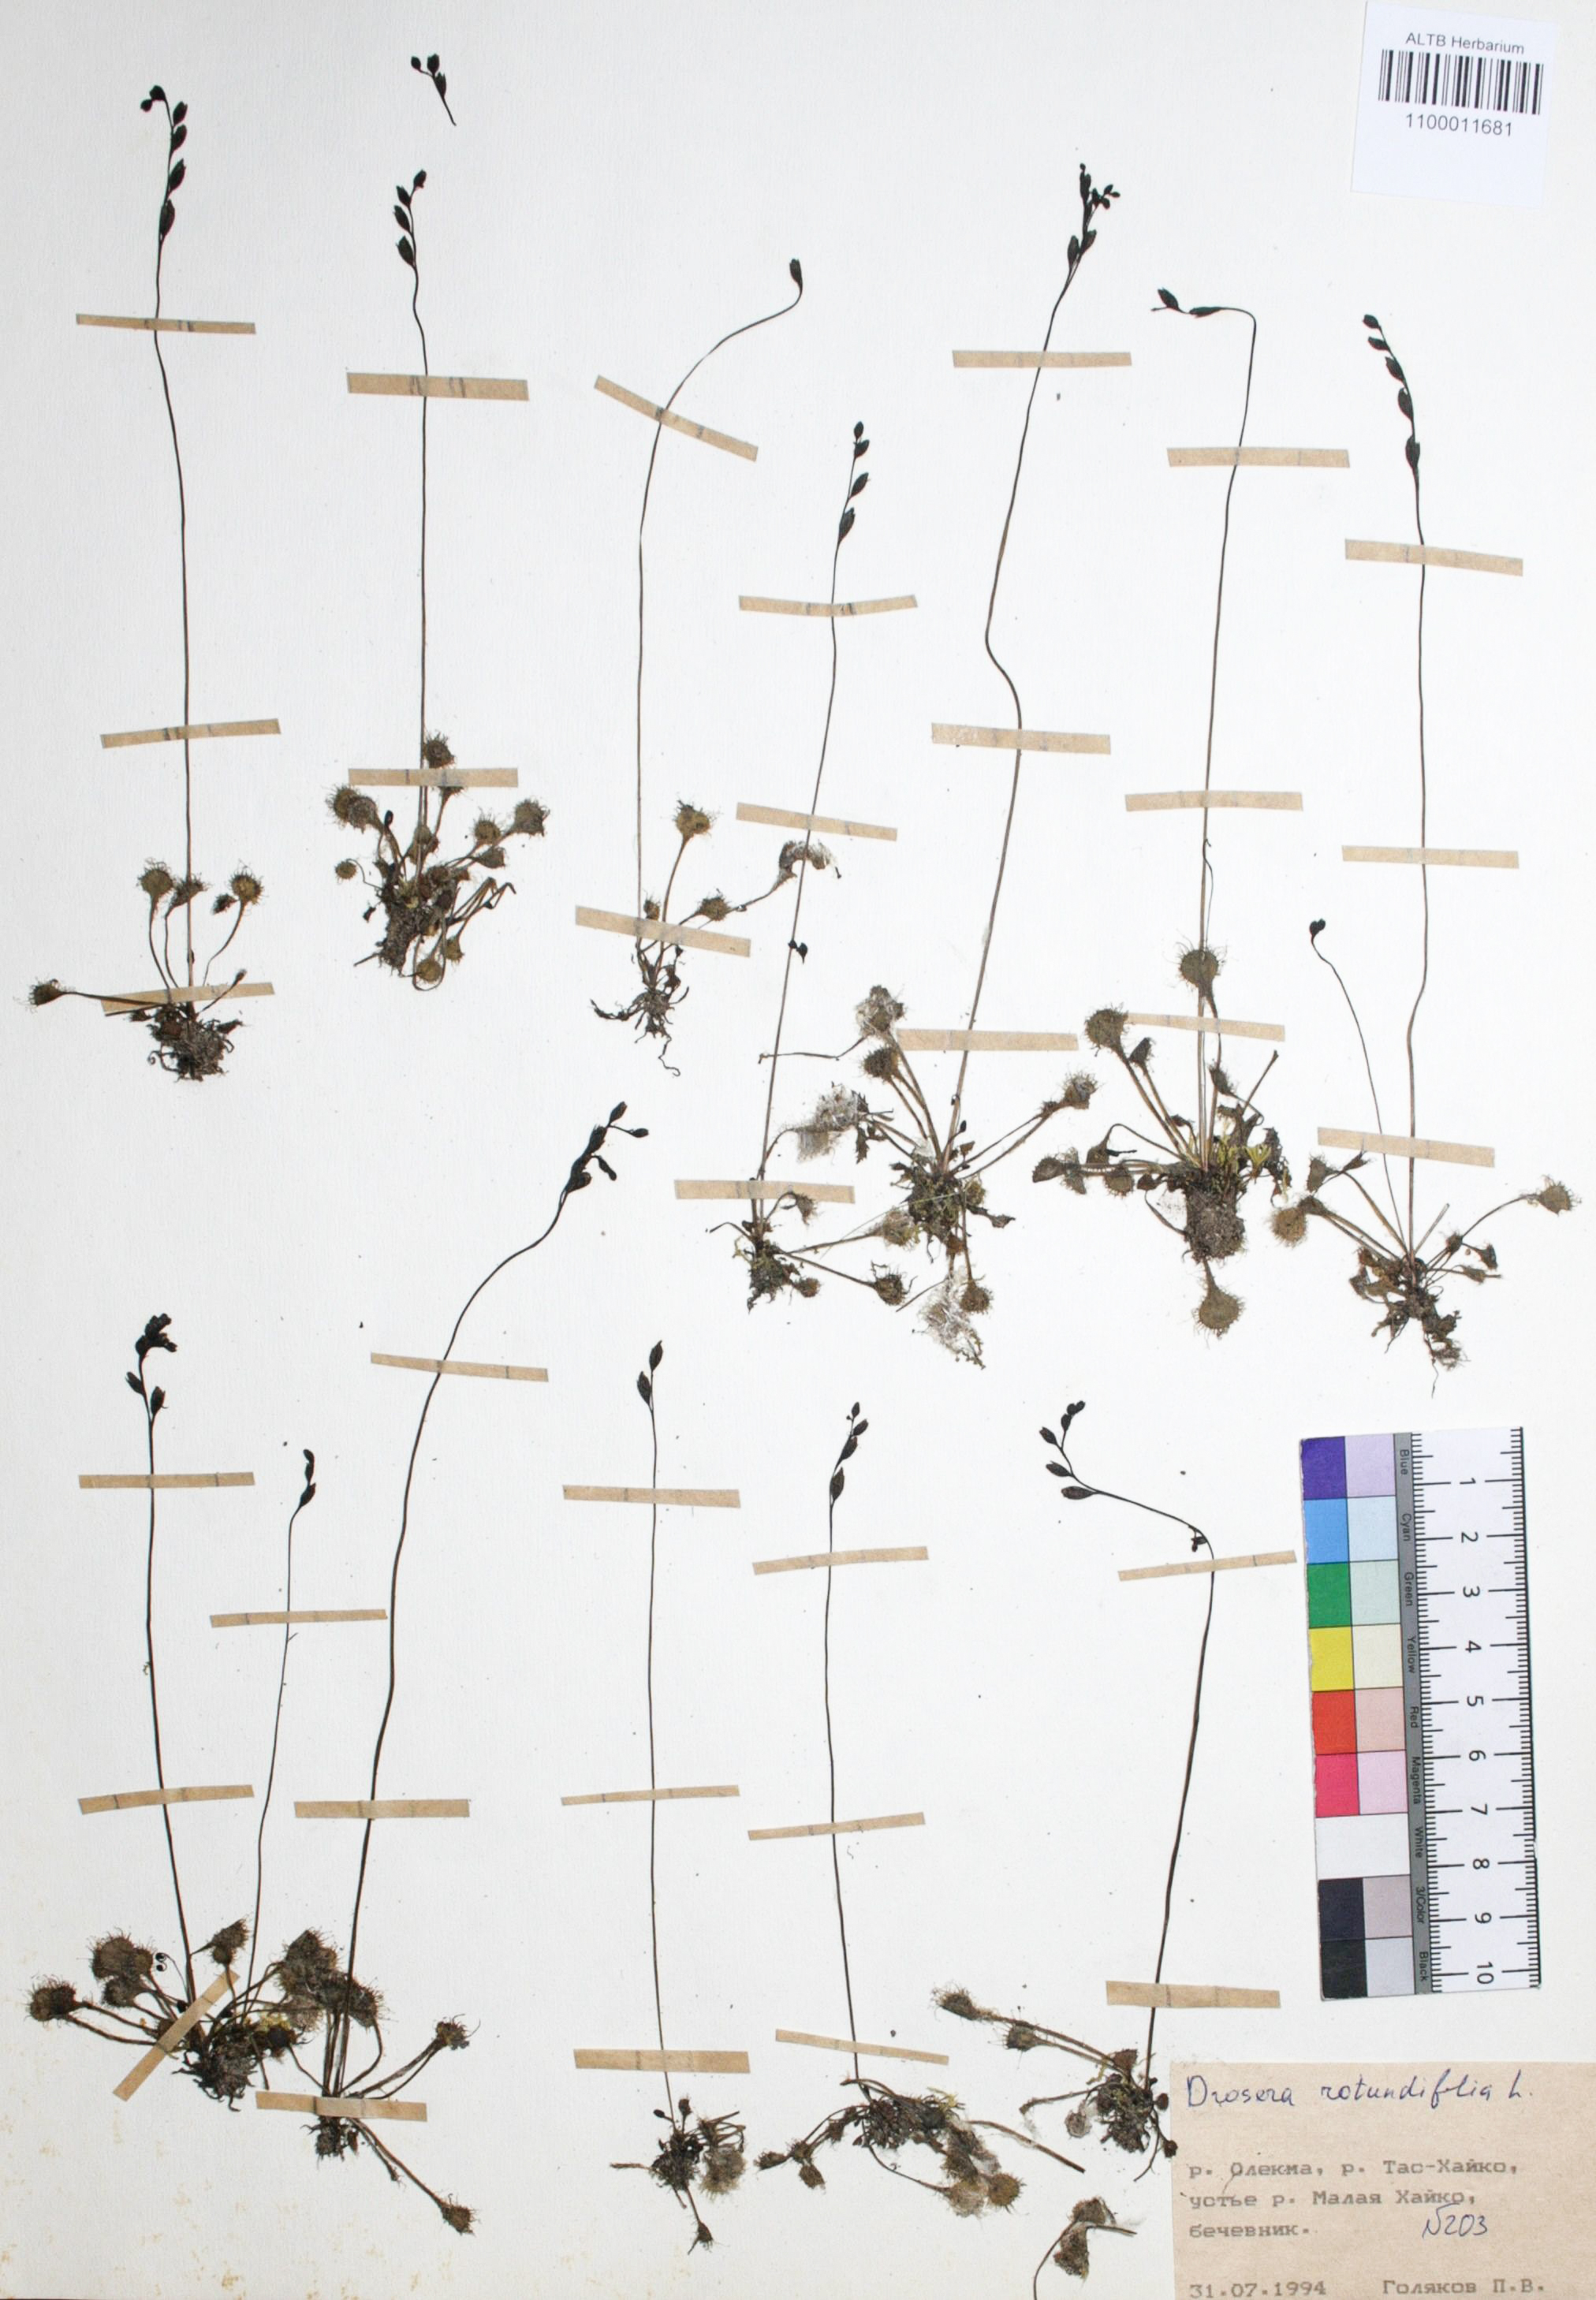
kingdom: Plantae
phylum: Tracheophyta
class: Magnoliopsida
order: Caryophyllales
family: Droseraceae
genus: Drosera
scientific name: Drosera rotundifolia
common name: Round-leaved sundew
